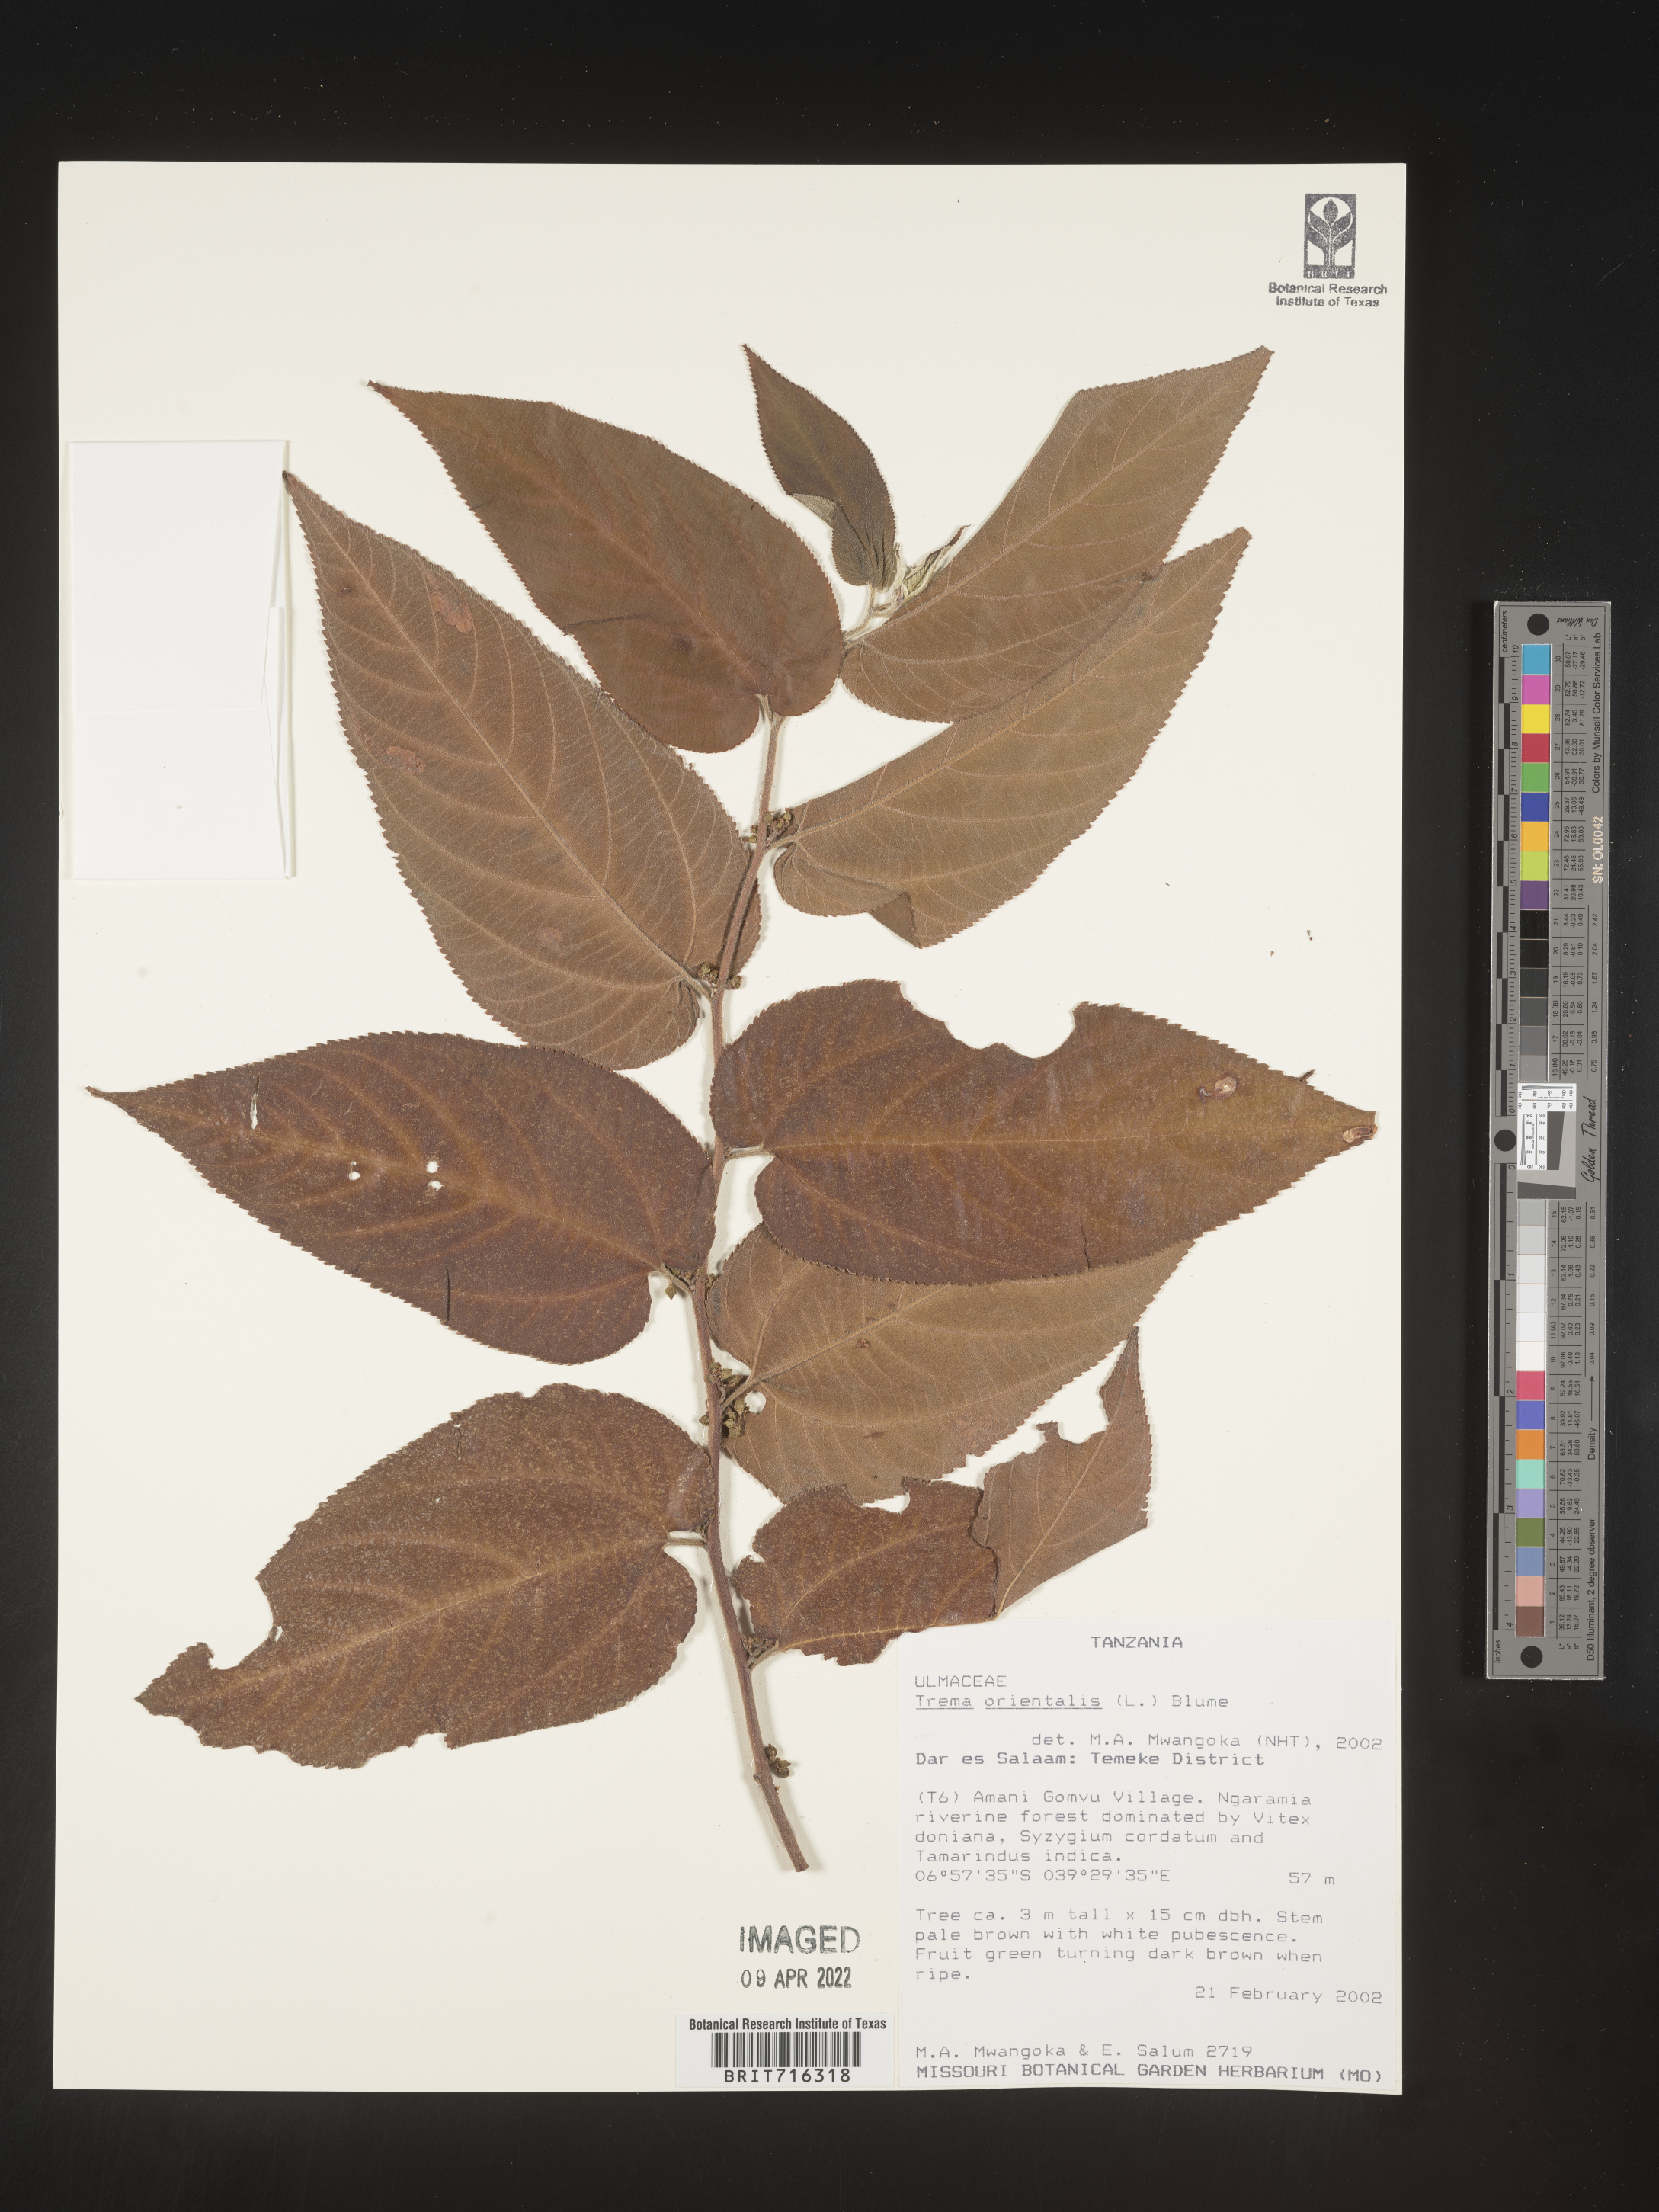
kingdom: Plantae
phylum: Tracheophyta
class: Magnoliopsida
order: Rosales
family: Cannabaceae
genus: Trema
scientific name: Trema
